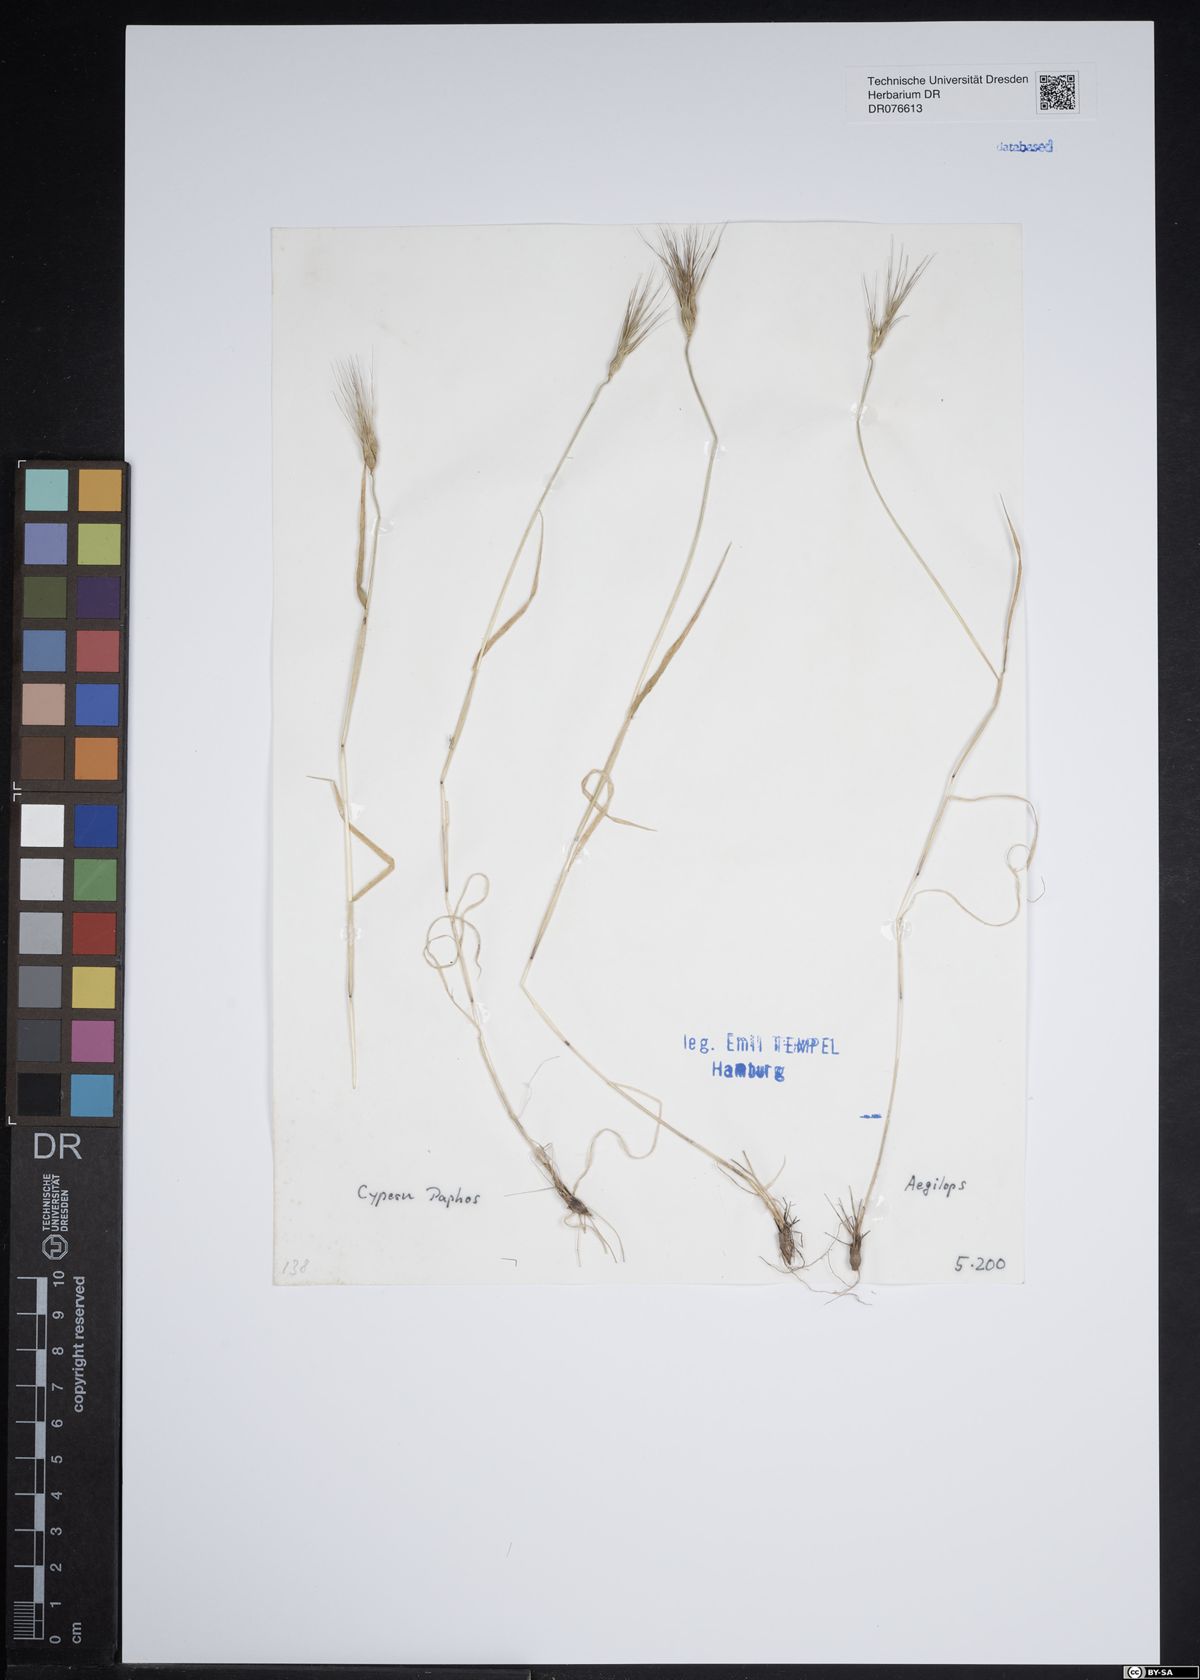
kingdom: Plantae
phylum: Tracheophyta
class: Liliopsida
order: Poales
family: Poaceae
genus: Aegilops
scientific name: Aegilops
